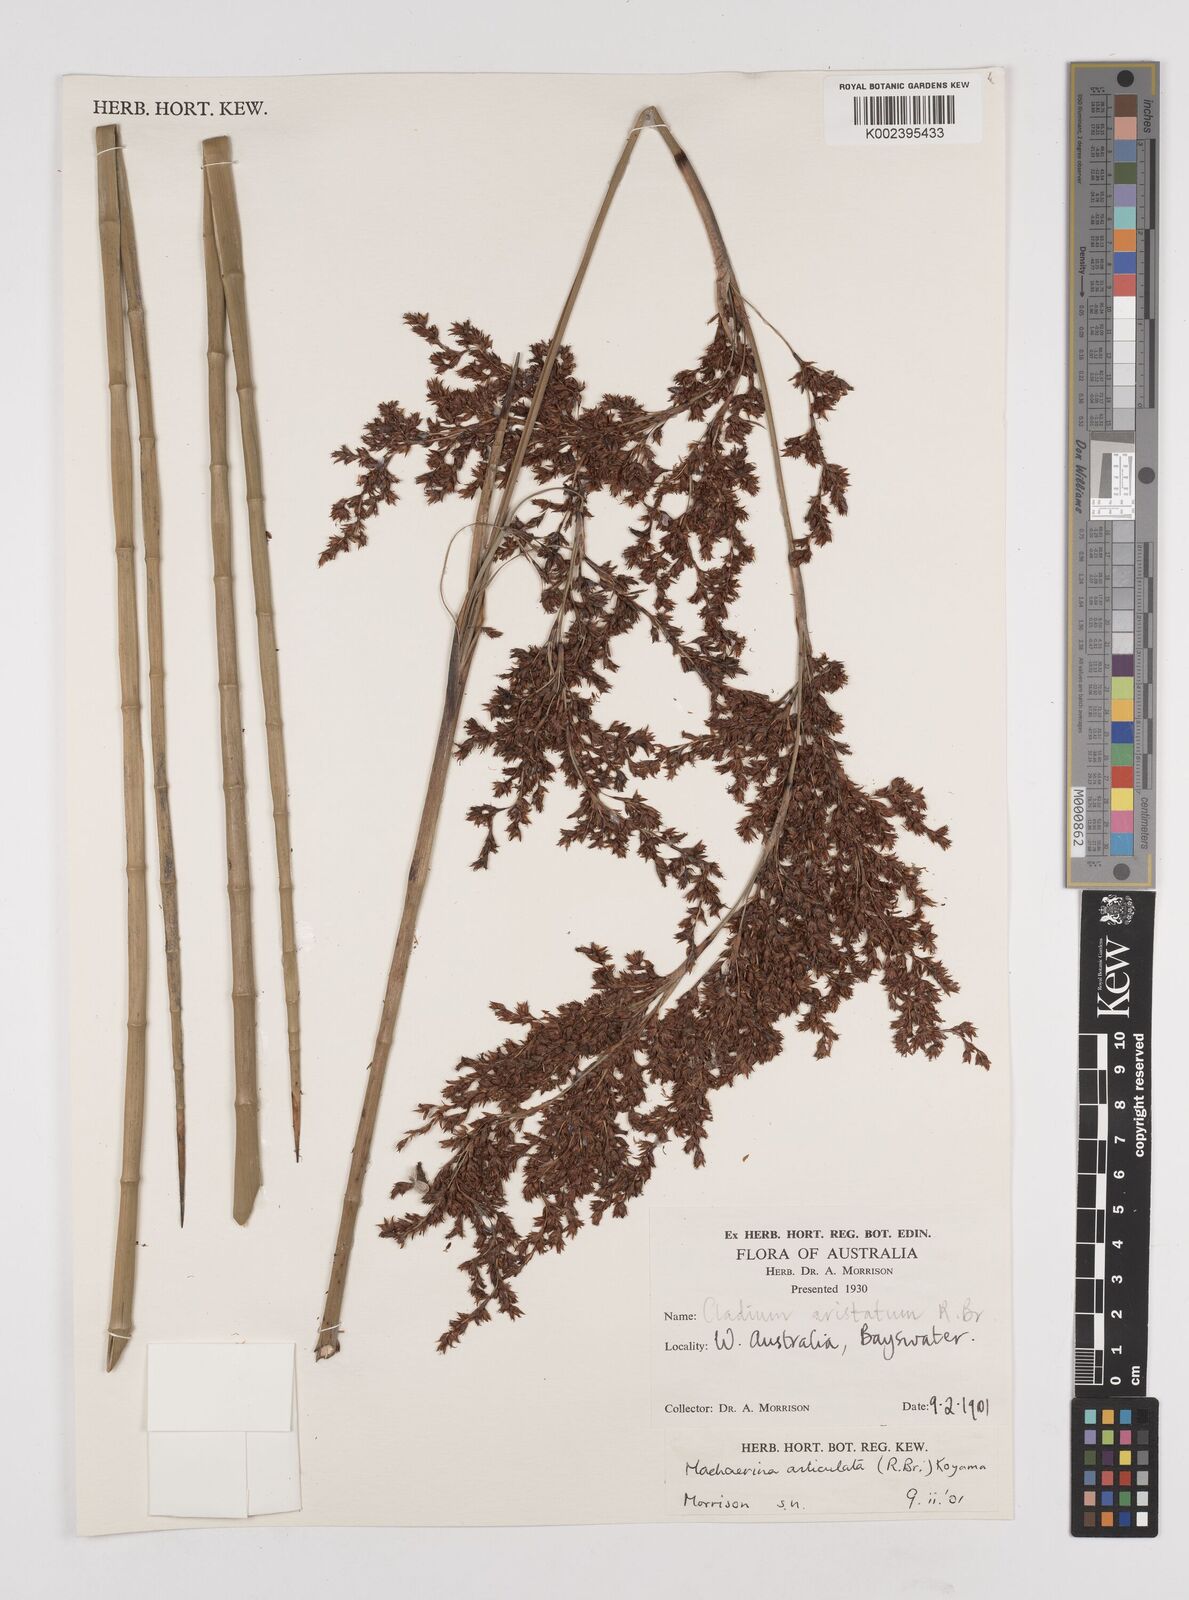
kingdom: Plantae
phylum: Tracheophyta
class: Liliopsida
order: Poales
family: Cyperaceae
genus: Machaerina
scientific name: Machaerina articulata
